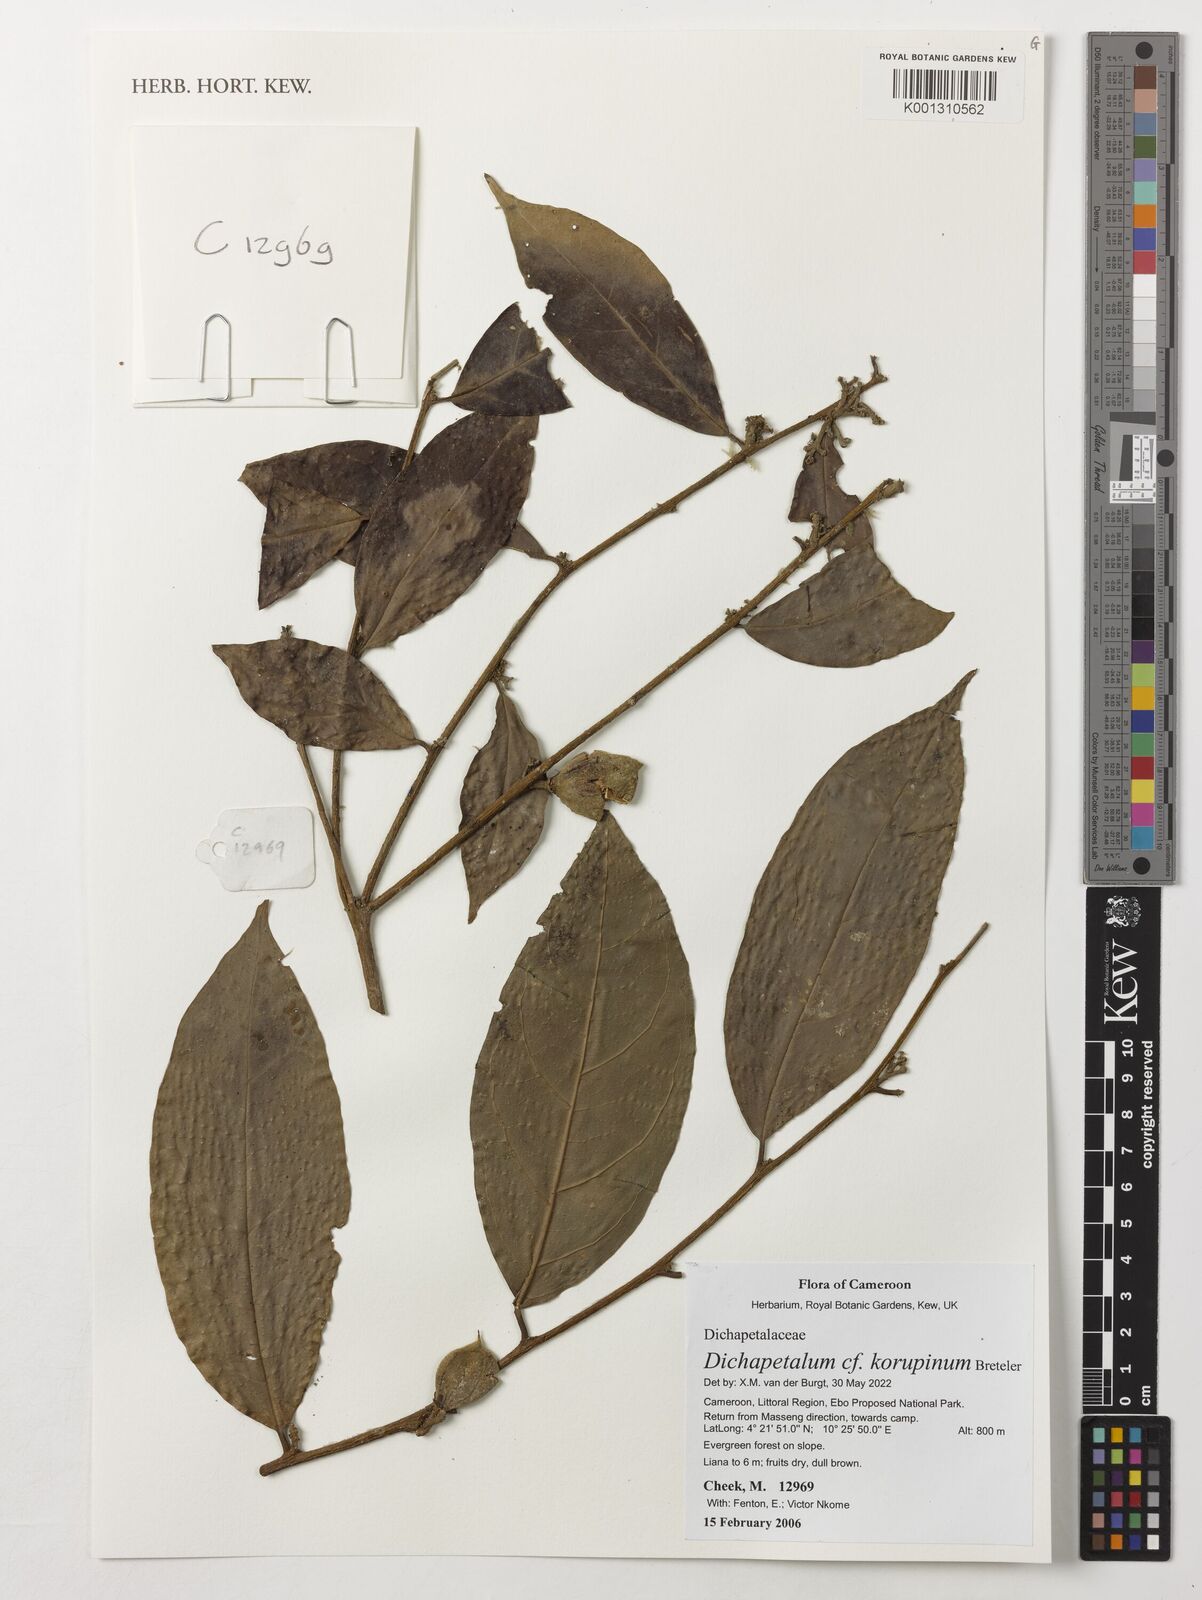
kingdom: Plantae
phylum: Tracheophyta
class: Magnoliopsida
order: Malpighiales
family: Dichapetalaceae
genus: Dichapetalum
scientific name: Dichapetalum korupinum
